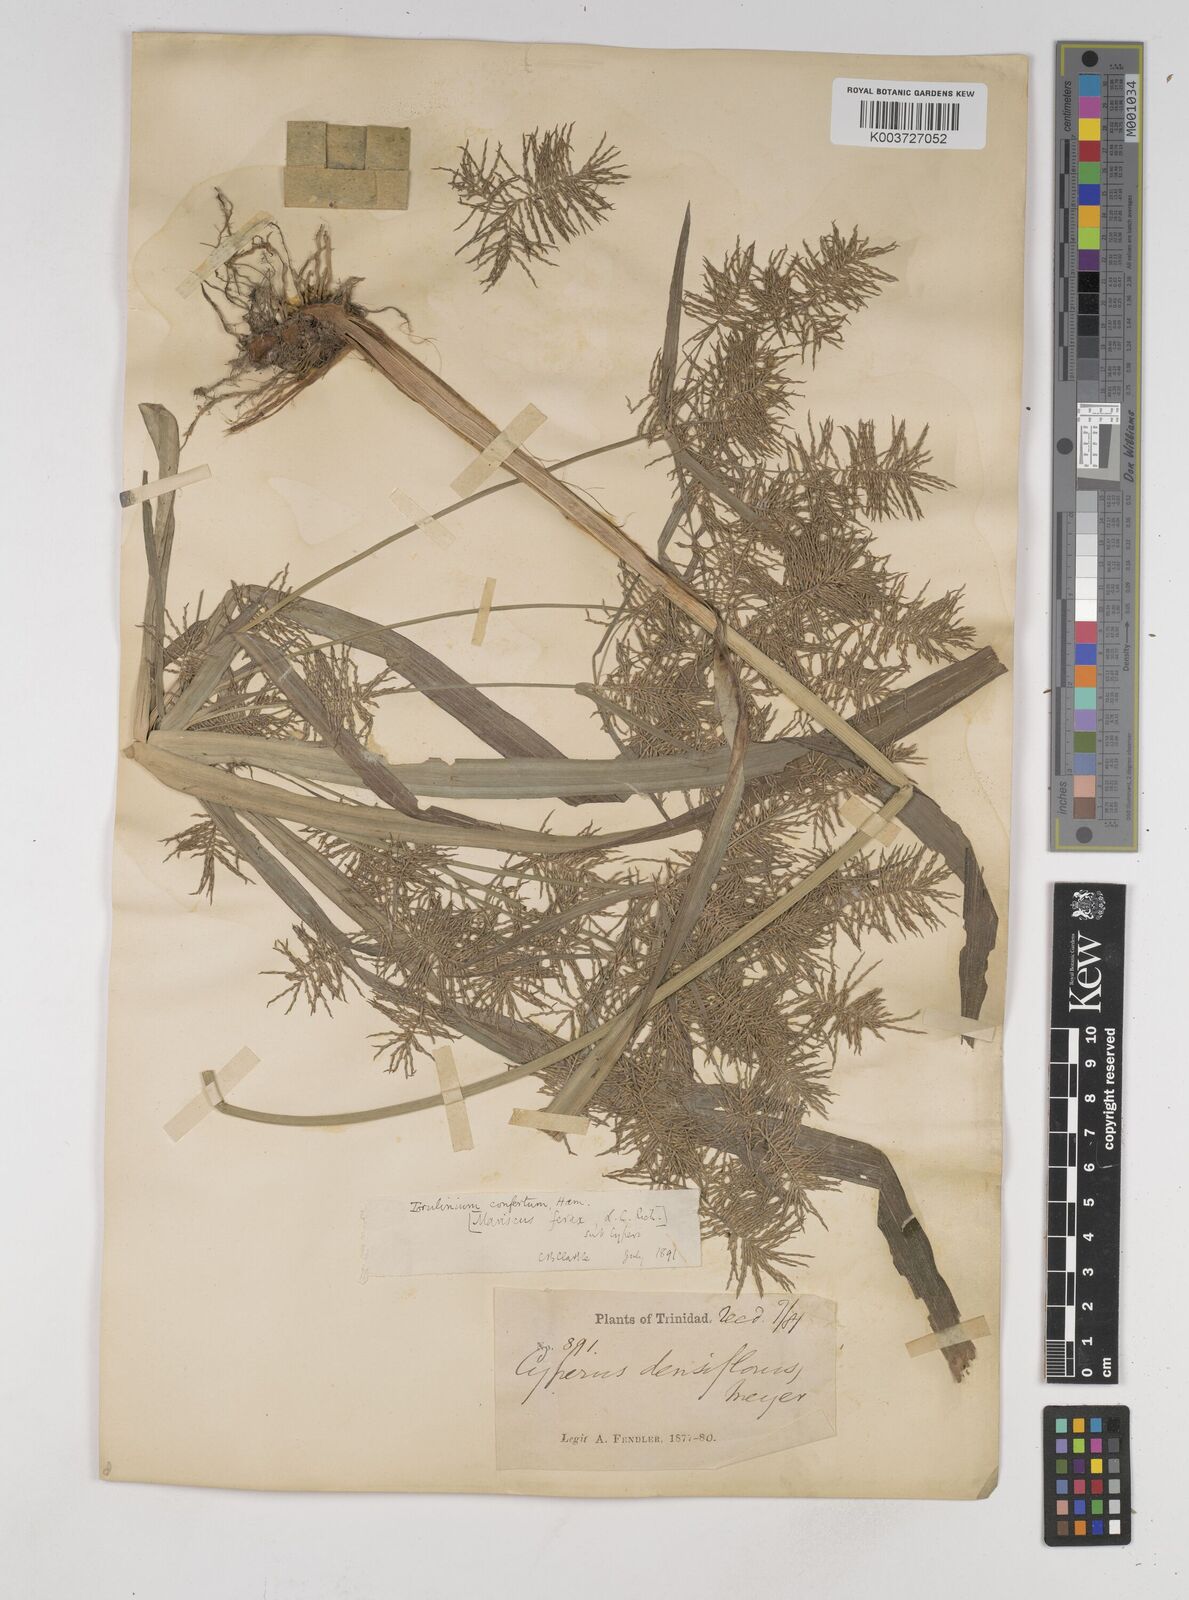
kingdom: Plantae
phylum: Tracheophyta
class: Liliopsida
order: Poales
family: Cyperaceae
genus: Cyperus
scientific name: Cyperus odoratus
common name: Fragrant flatsedge
